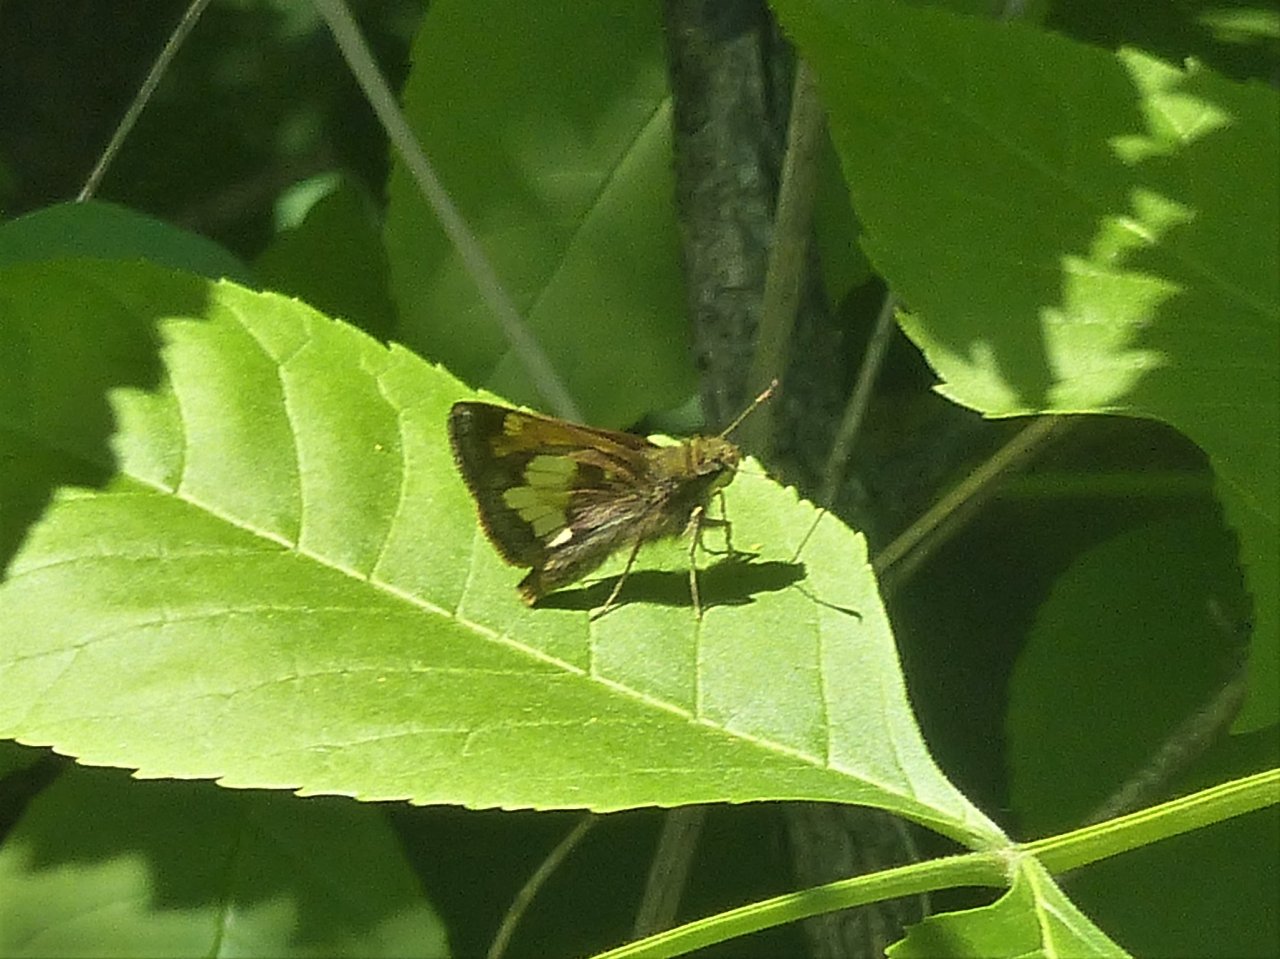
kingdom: Animalia
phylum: Arthropoda
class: Insecta
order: Lepidoptera
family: Hesperiidae
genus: Lon
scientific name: Lon hobomok
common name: Hobomok Skipper
